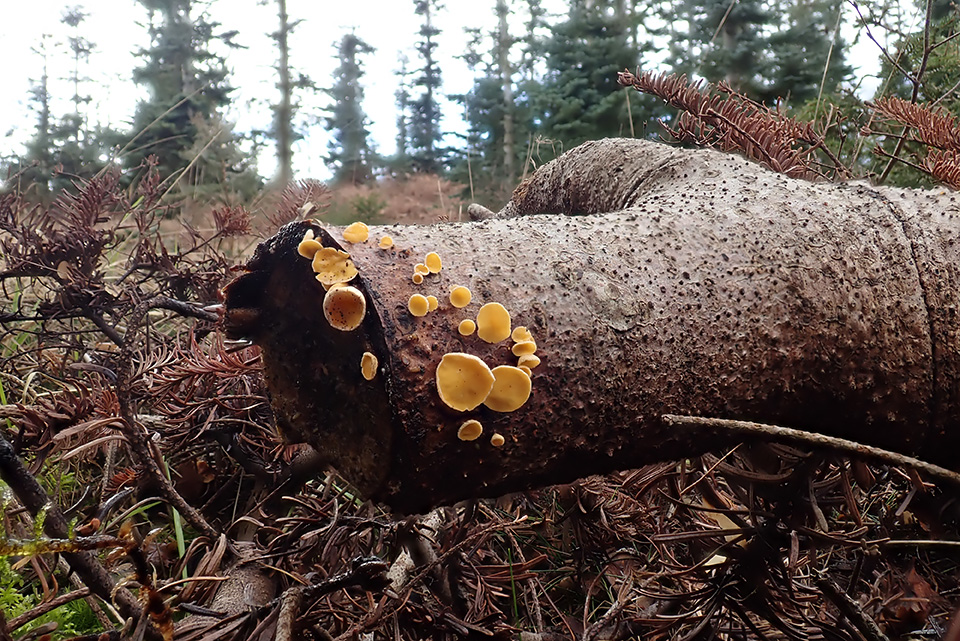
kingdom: Fungi
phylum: Ascomycota
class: Leotiomycetes
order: Helotiales
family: Lachnaceae
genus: Lachnellula
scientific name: Lachnellula calyciformis
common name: ædelgran-frynseskive
